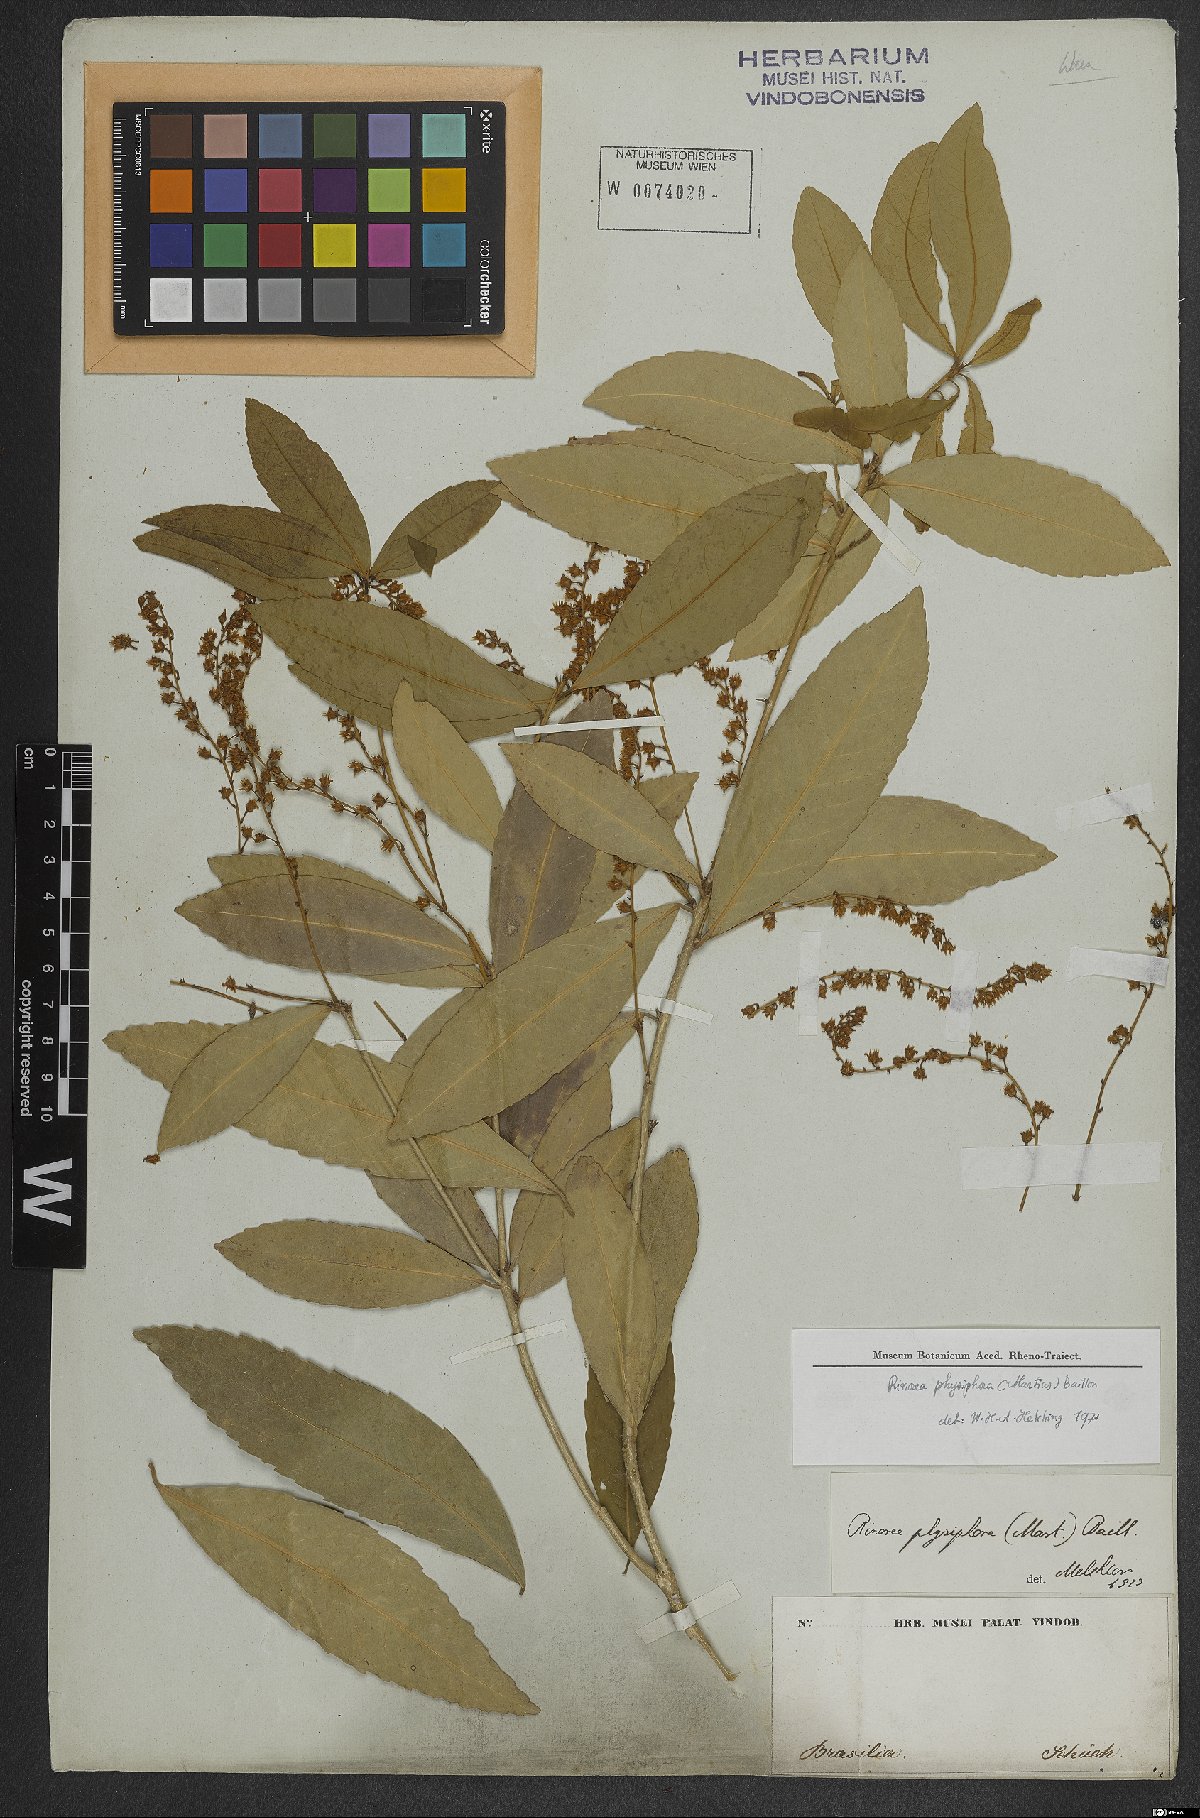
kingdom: Plantae
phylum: Tracheophyta
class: Magnoliopsida
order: Malpighiales
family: Violaceae
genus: Rinorea
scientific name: Rinorea laevigata
